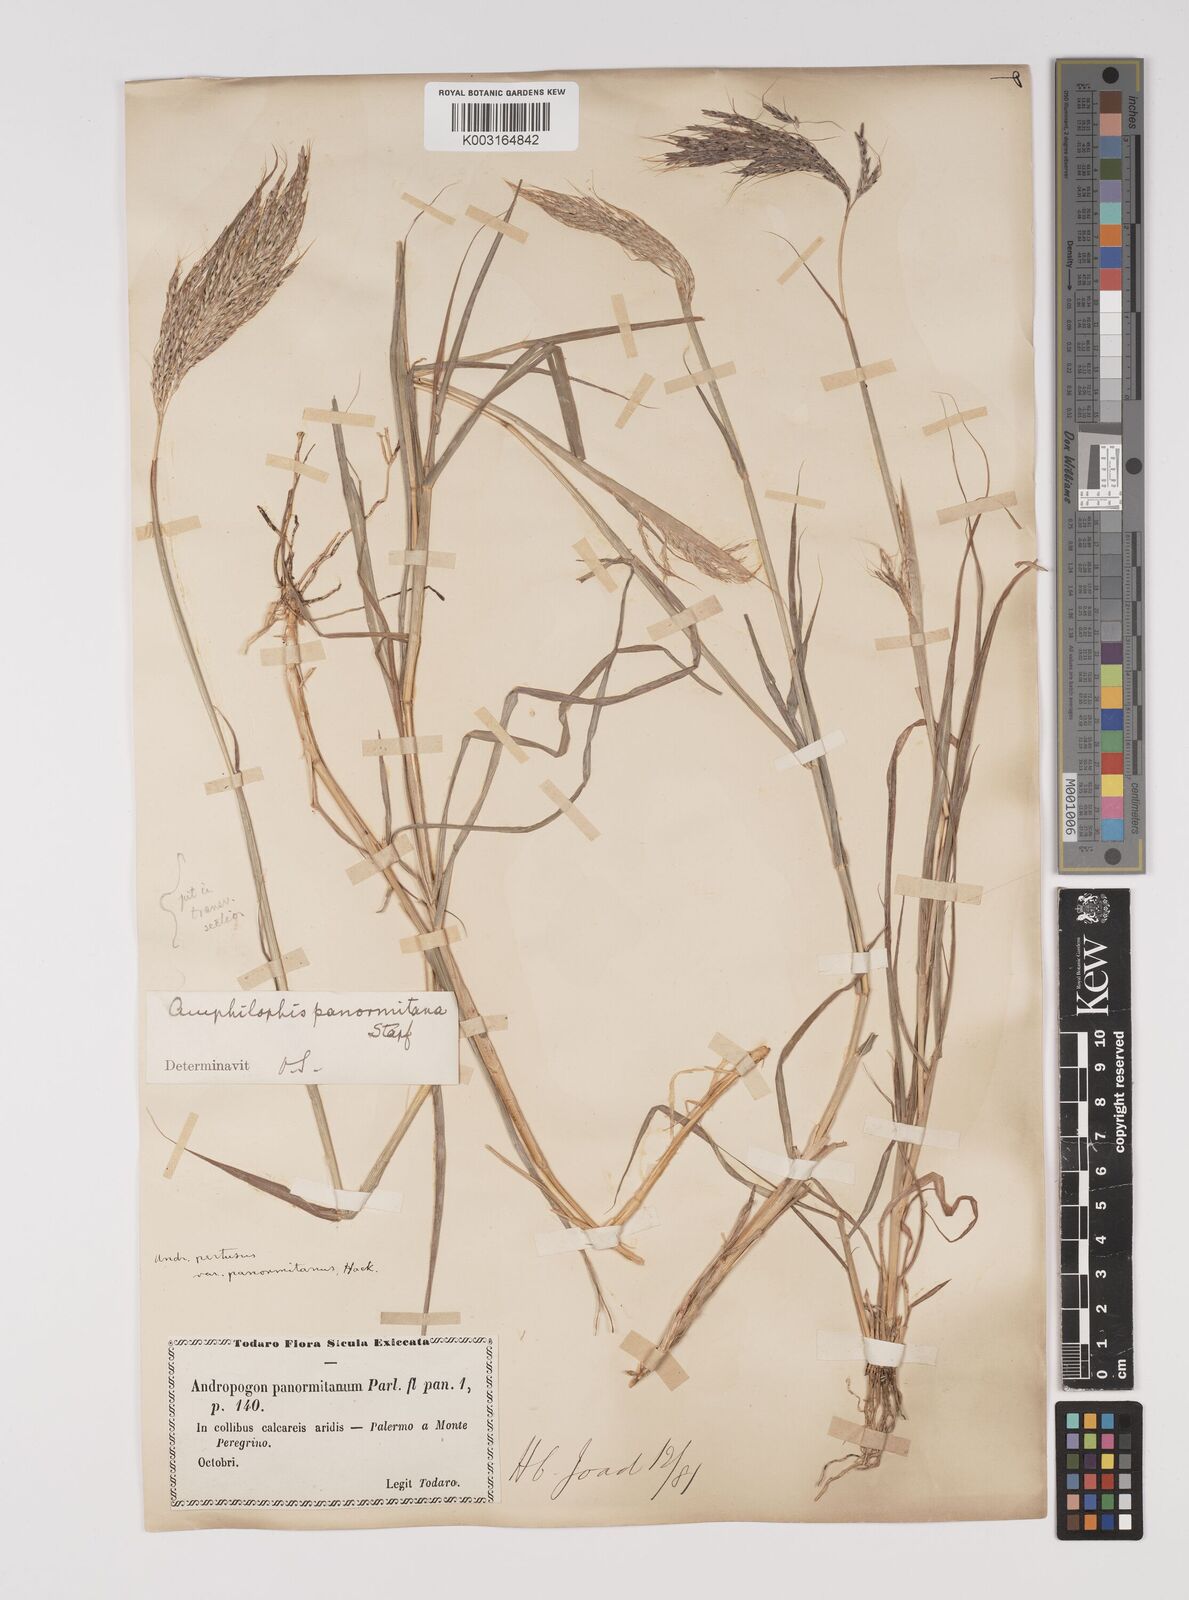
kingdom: Plantae
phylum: Tracheophyta
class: Liliopsida
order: Poales
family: Poaceae
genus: Bothriochloa
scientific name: Bothriochloa insculpta
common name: Creeping-bluegrass
